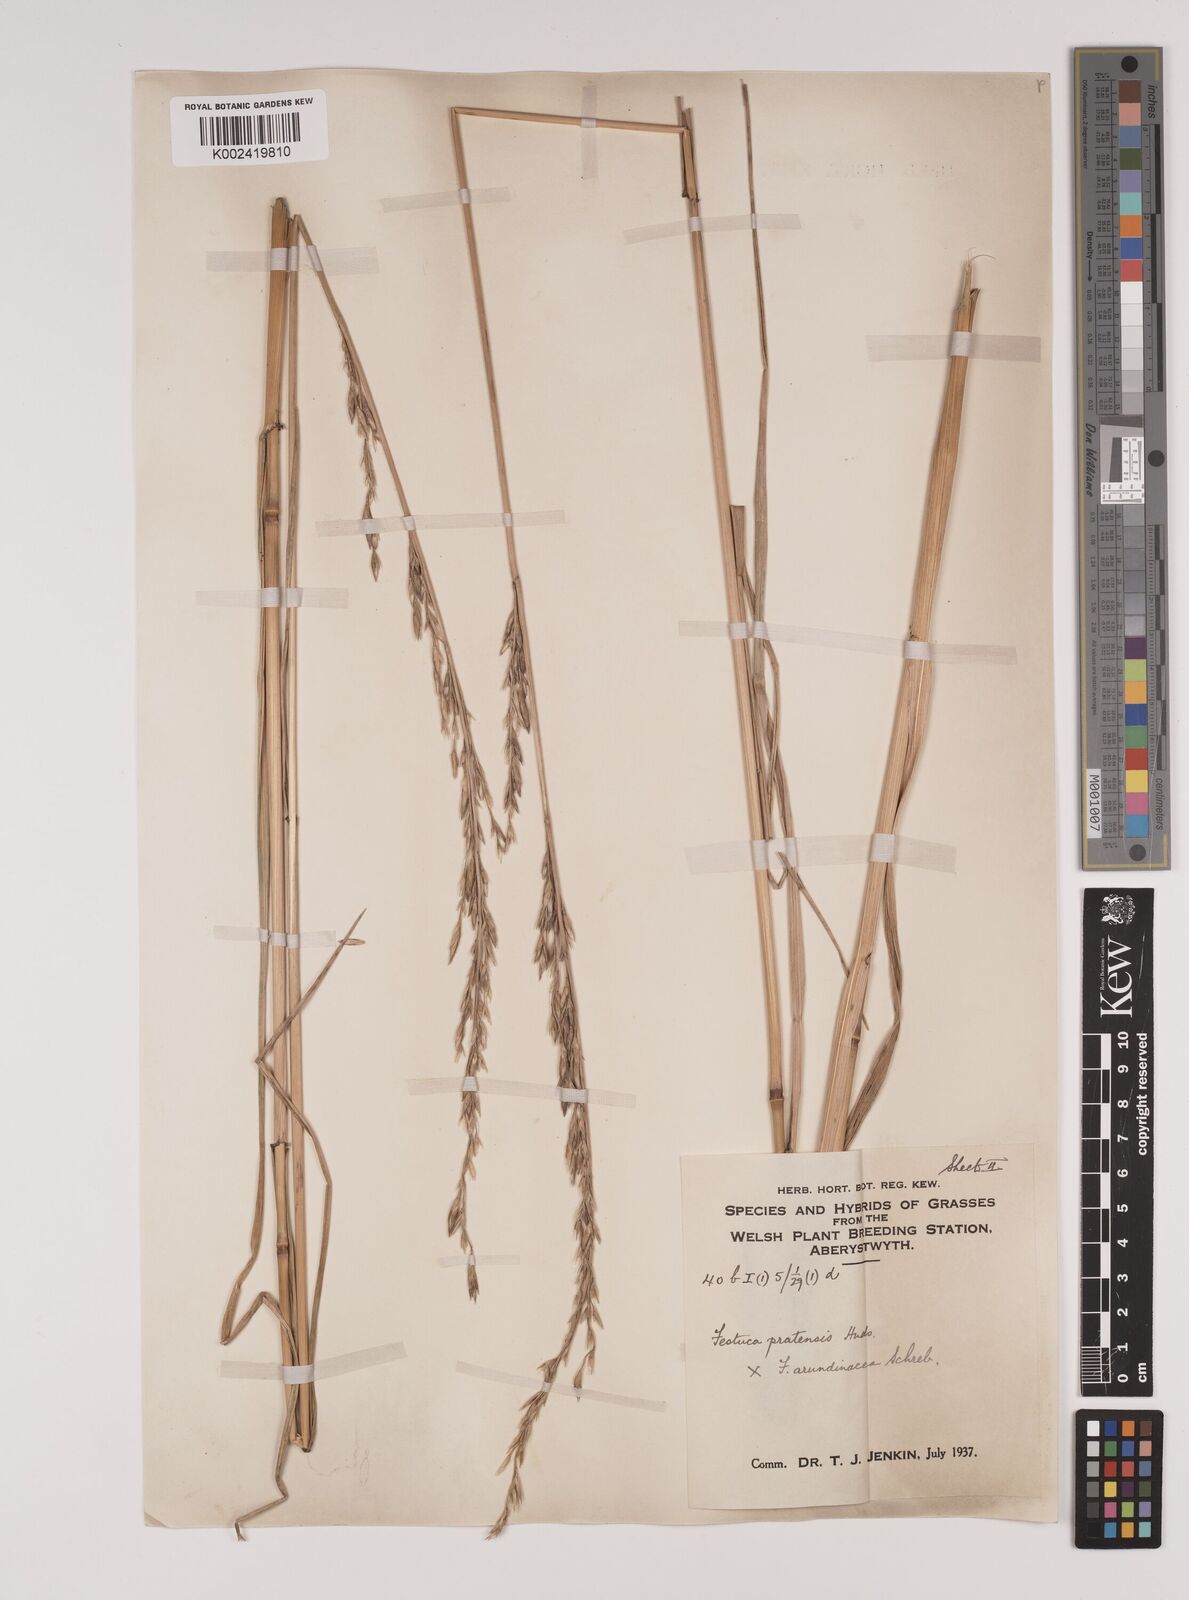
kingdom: Plantae
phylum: Tracheophyta
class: Liliopsida
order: Poales
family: Poaceae
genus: Festuca
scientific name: Festuca rubra
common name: Red fescue
